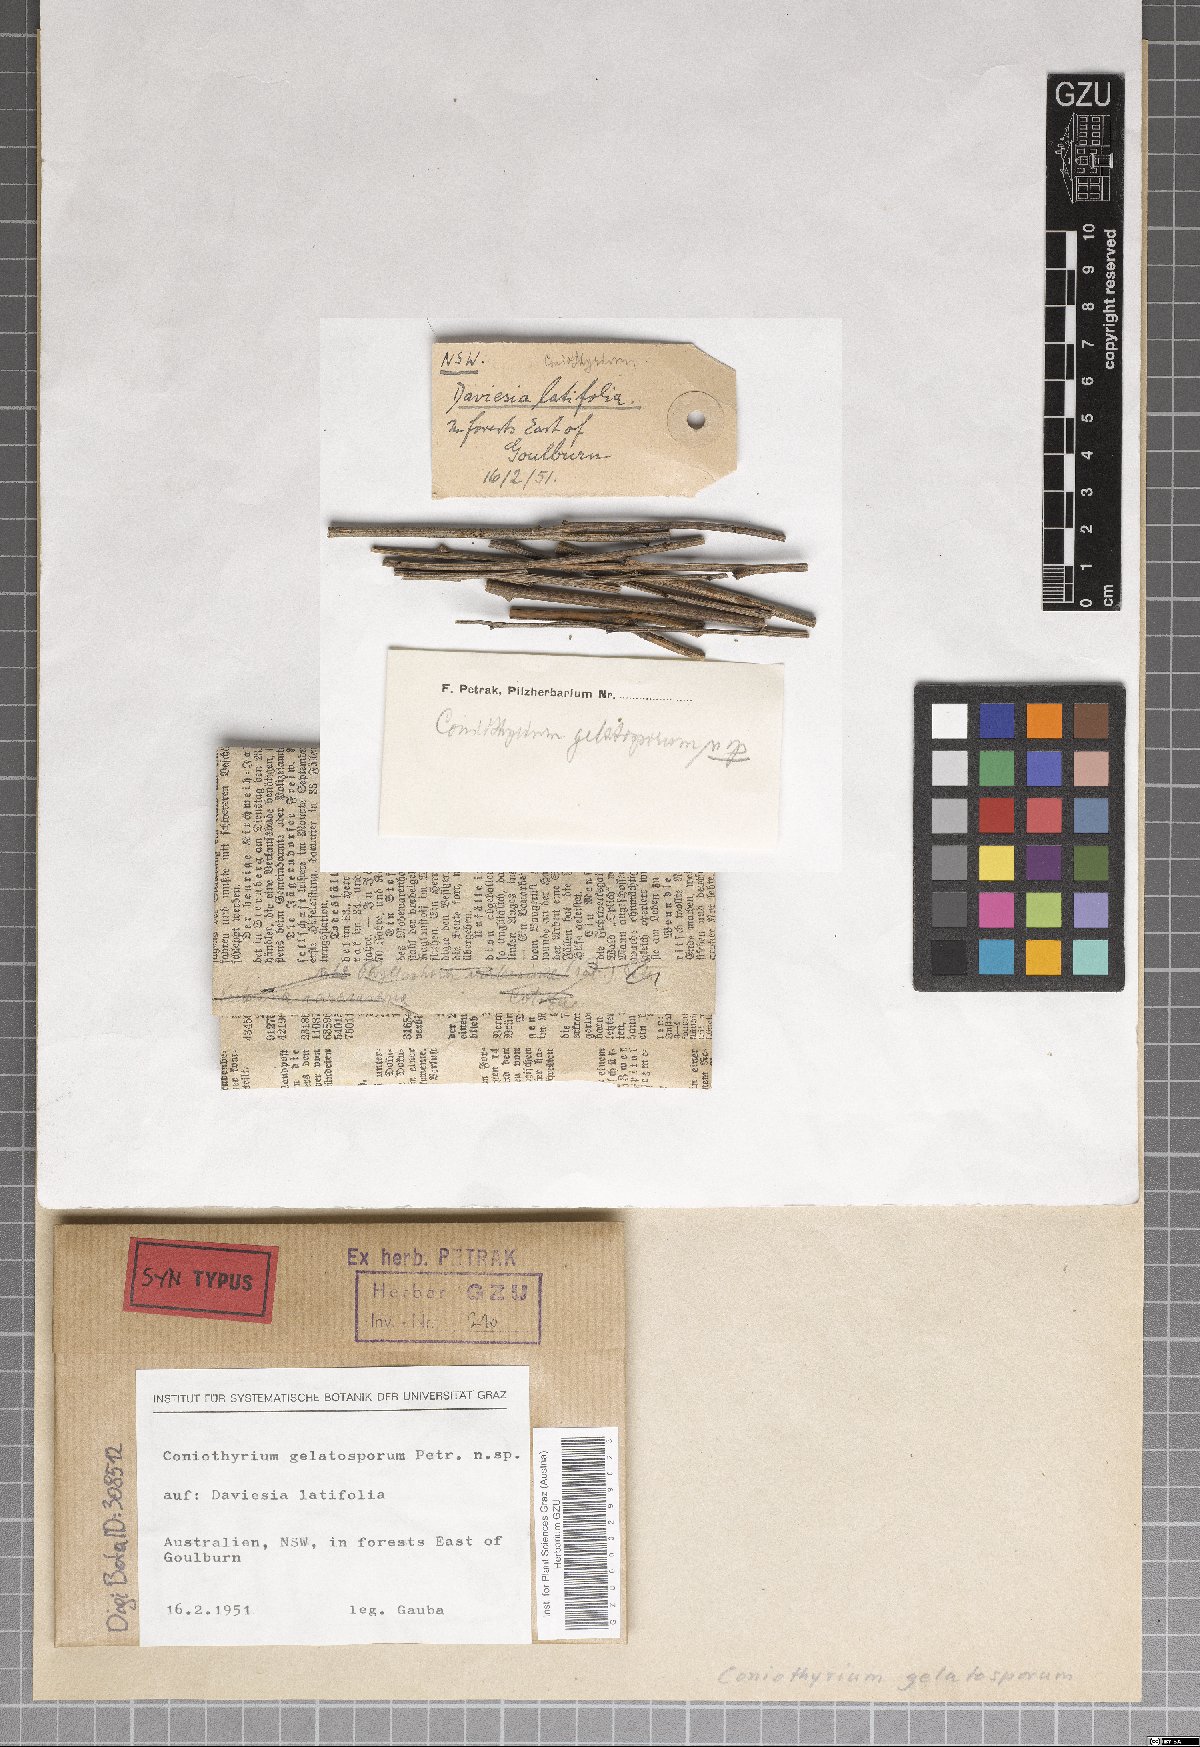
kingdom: Fungi
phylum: Ascomycota
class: Dothideomycetes
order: Pleosporales
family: Coniothyriaceae
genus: Coniothyrium
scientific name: Coniothyrium gelatosporum
